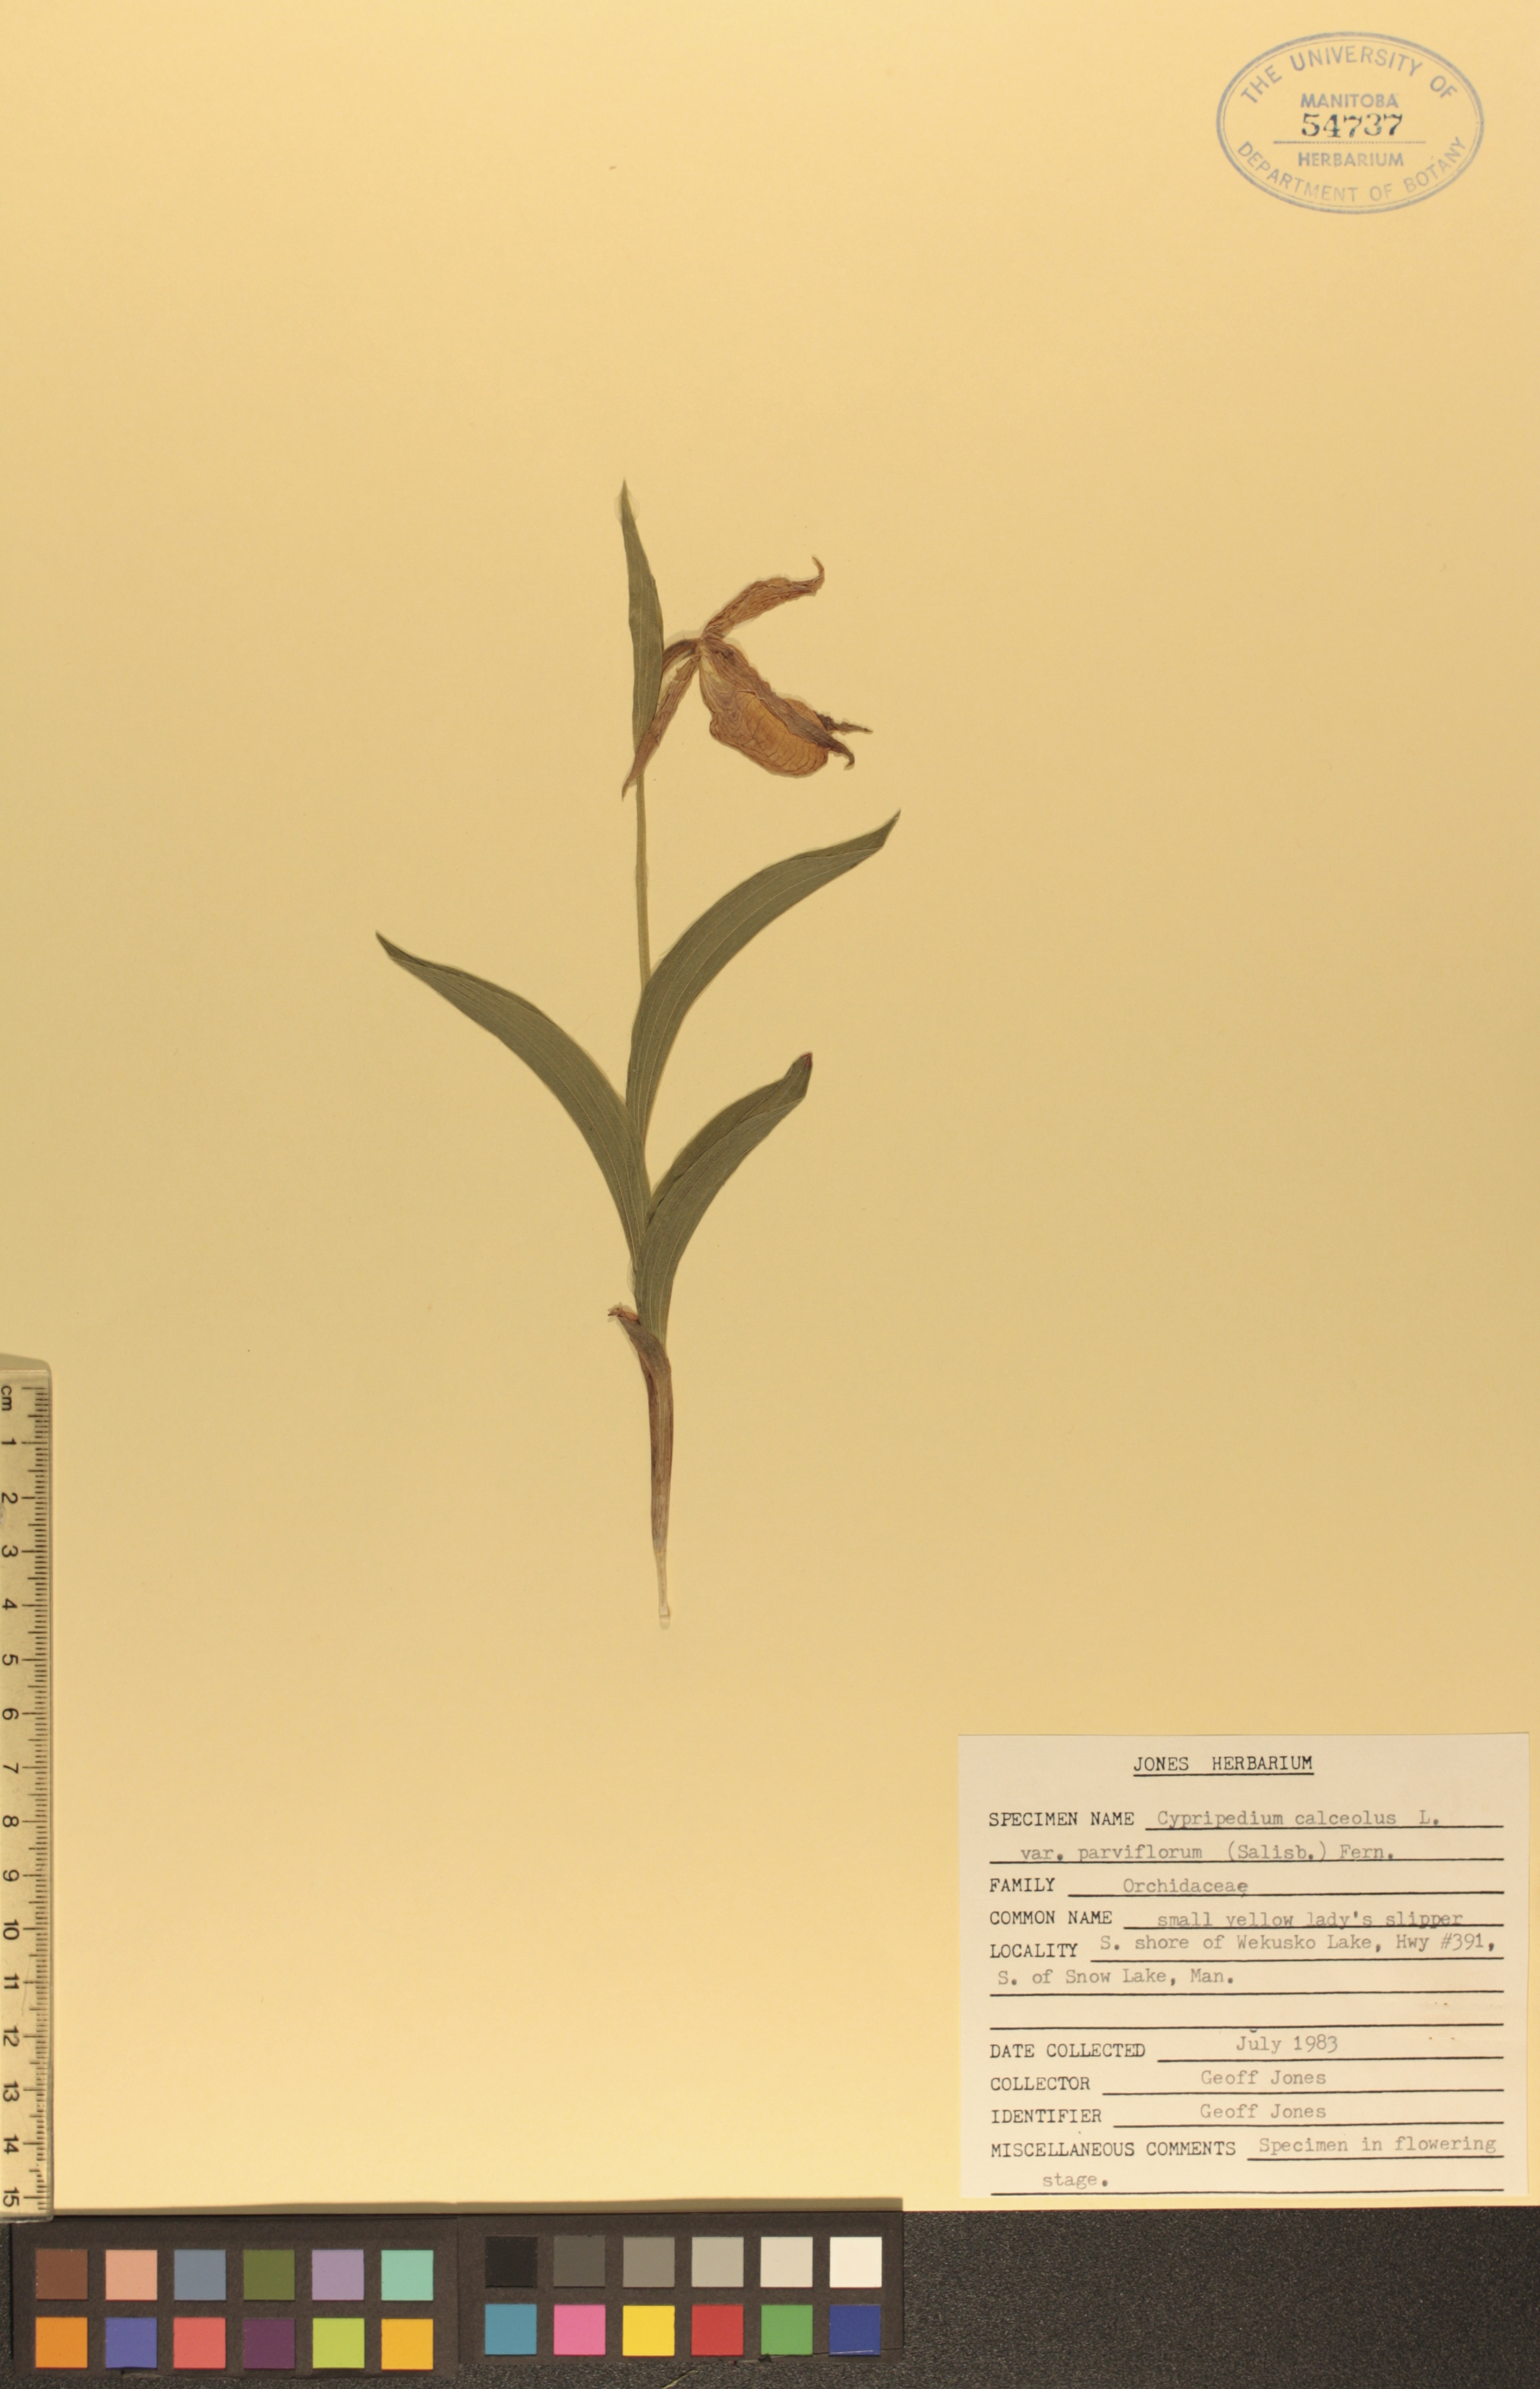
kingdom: Plantae
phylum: Tracheophyta
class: Liliopsida
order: Asparagales
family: Orchidaceae
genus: Cypripedium
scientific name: Cypripedium parviflorum
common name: American yellow lady's-slipper
